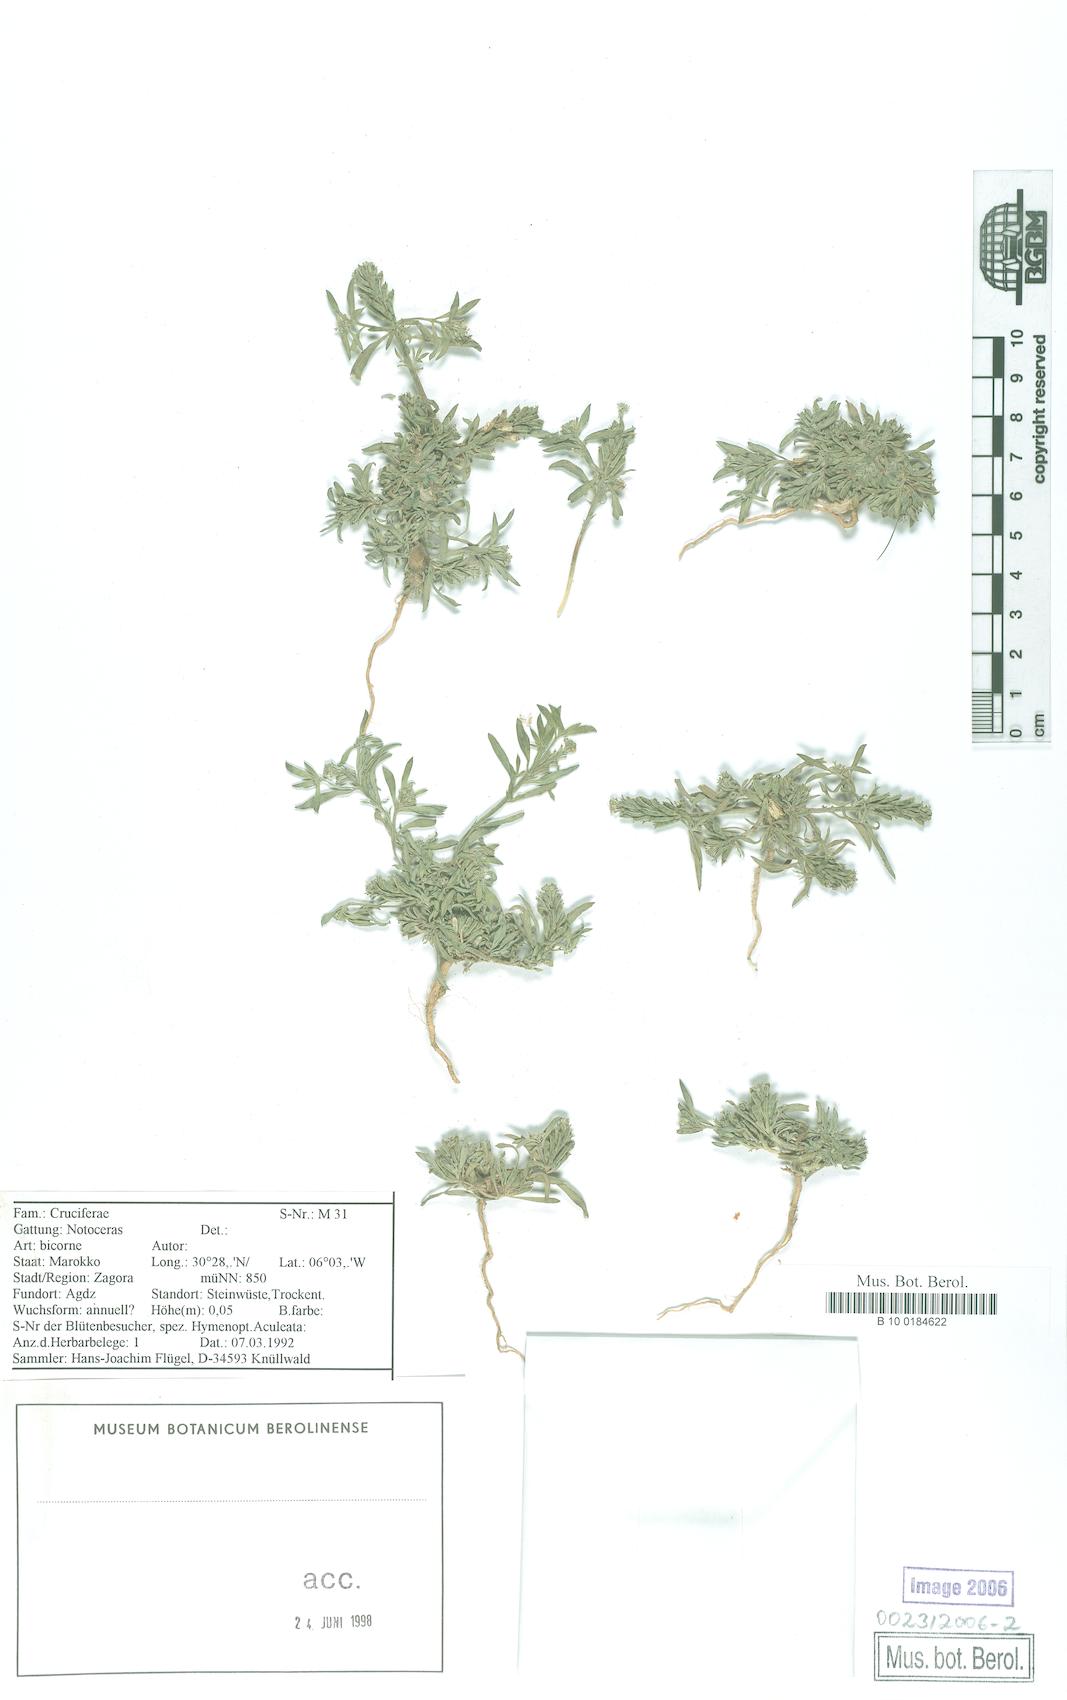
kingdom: Plantae
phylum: Tracheophyta
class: Magnoliopsida
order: Brassicales
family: Brassicaceae
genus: Notoceras
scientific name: Notoceras bicorne
